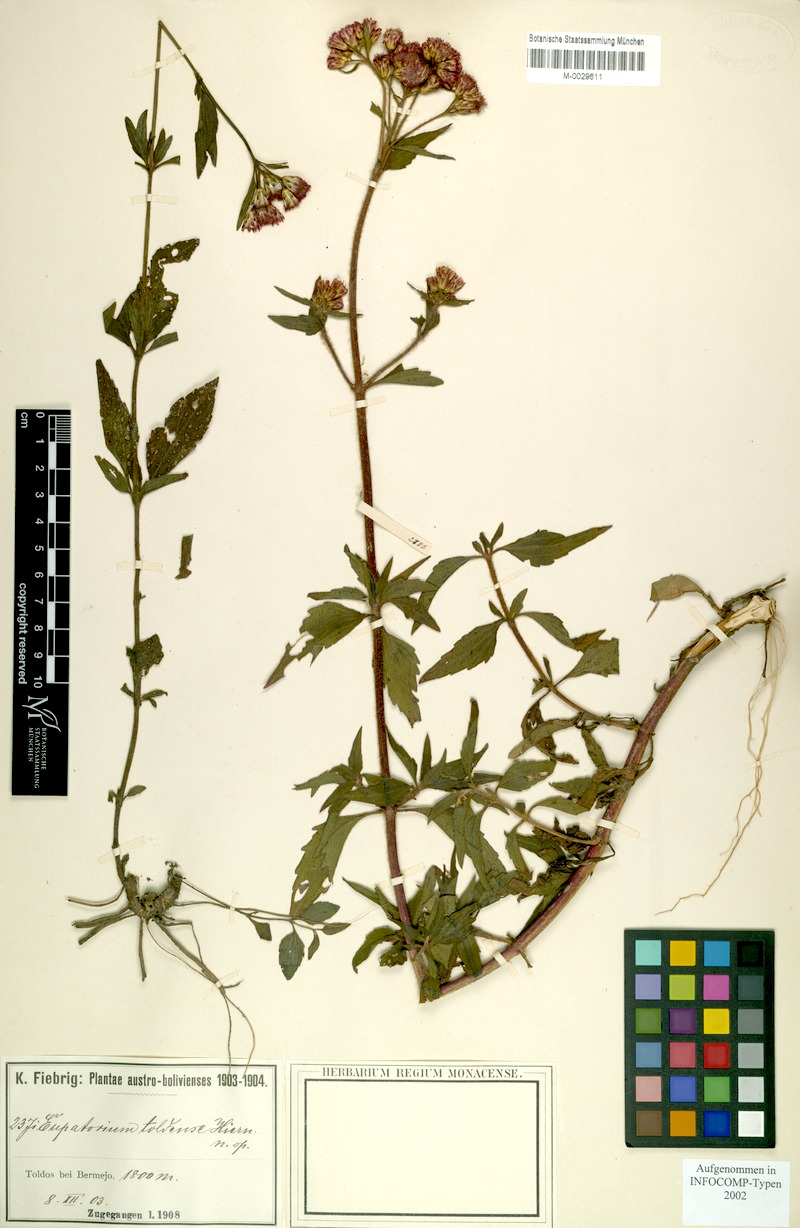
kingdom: Plantae
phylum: Tracheophyta
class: Magnoliopsida
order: Asterales
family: Asteraceae
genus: Chromolaena
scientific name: Chromolaena toldensis
